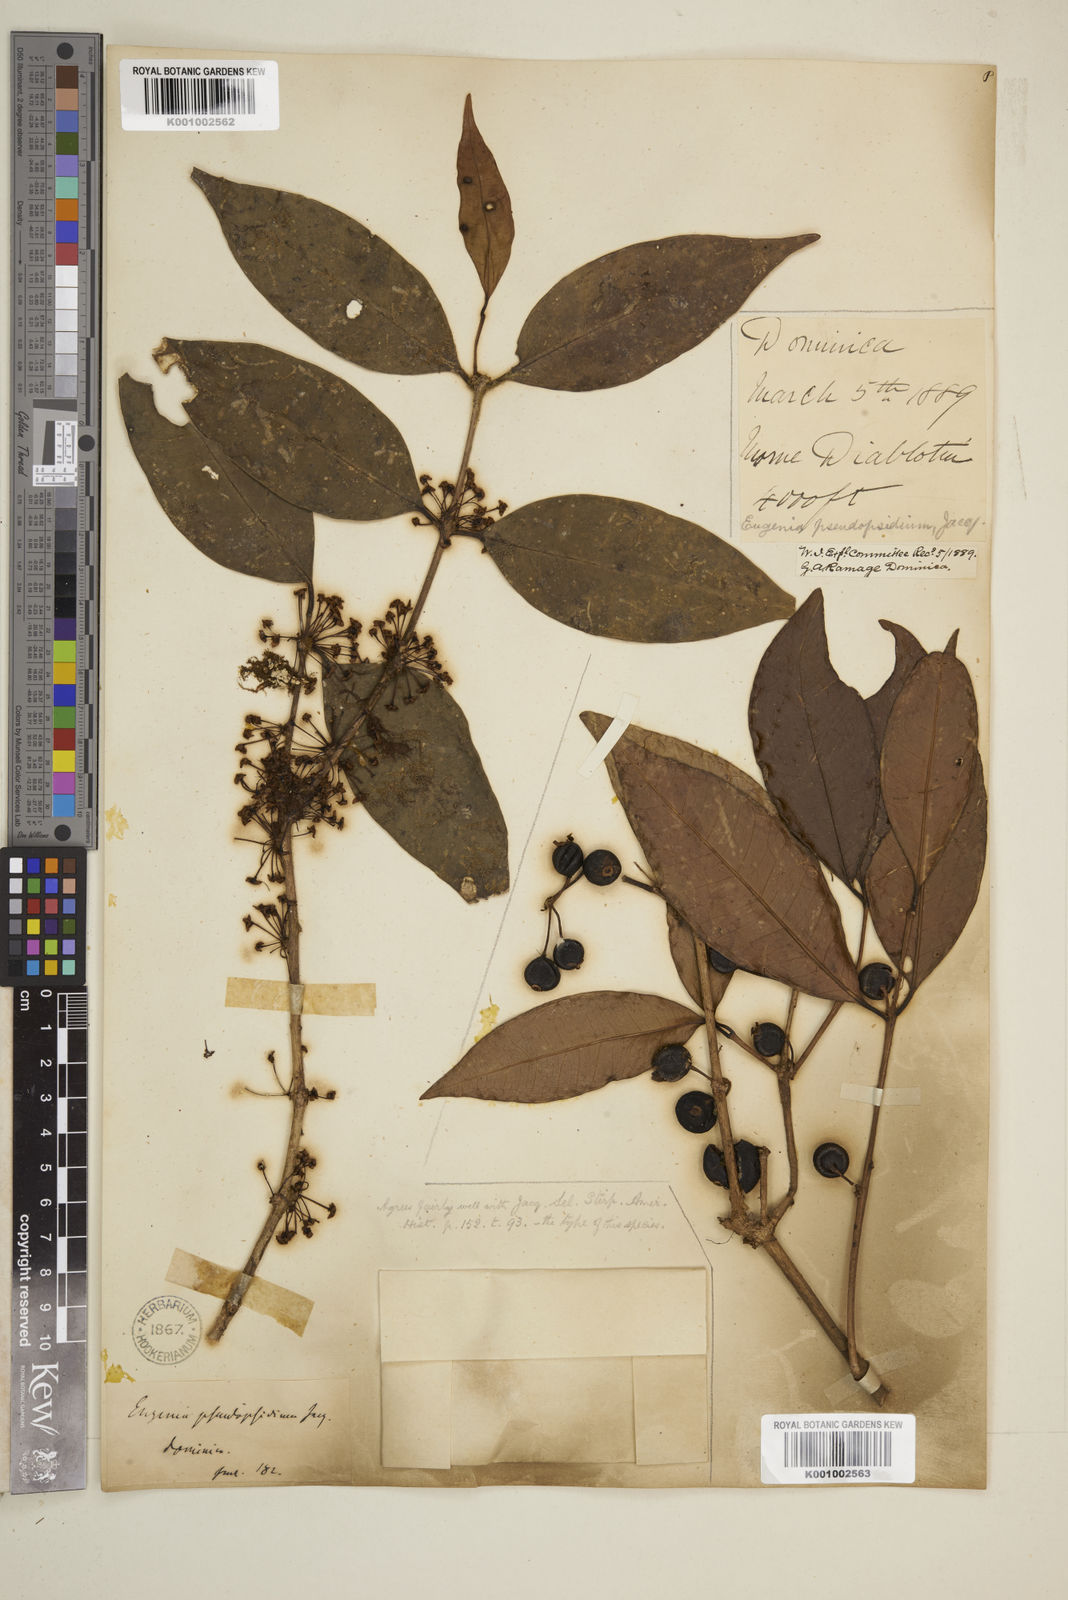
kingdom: Plantae
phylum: Tracheophyta
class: Magnoliopsida
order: Myrtales
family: Myrtaceae
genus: Eugenia
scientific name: Eugenia lambertiana
